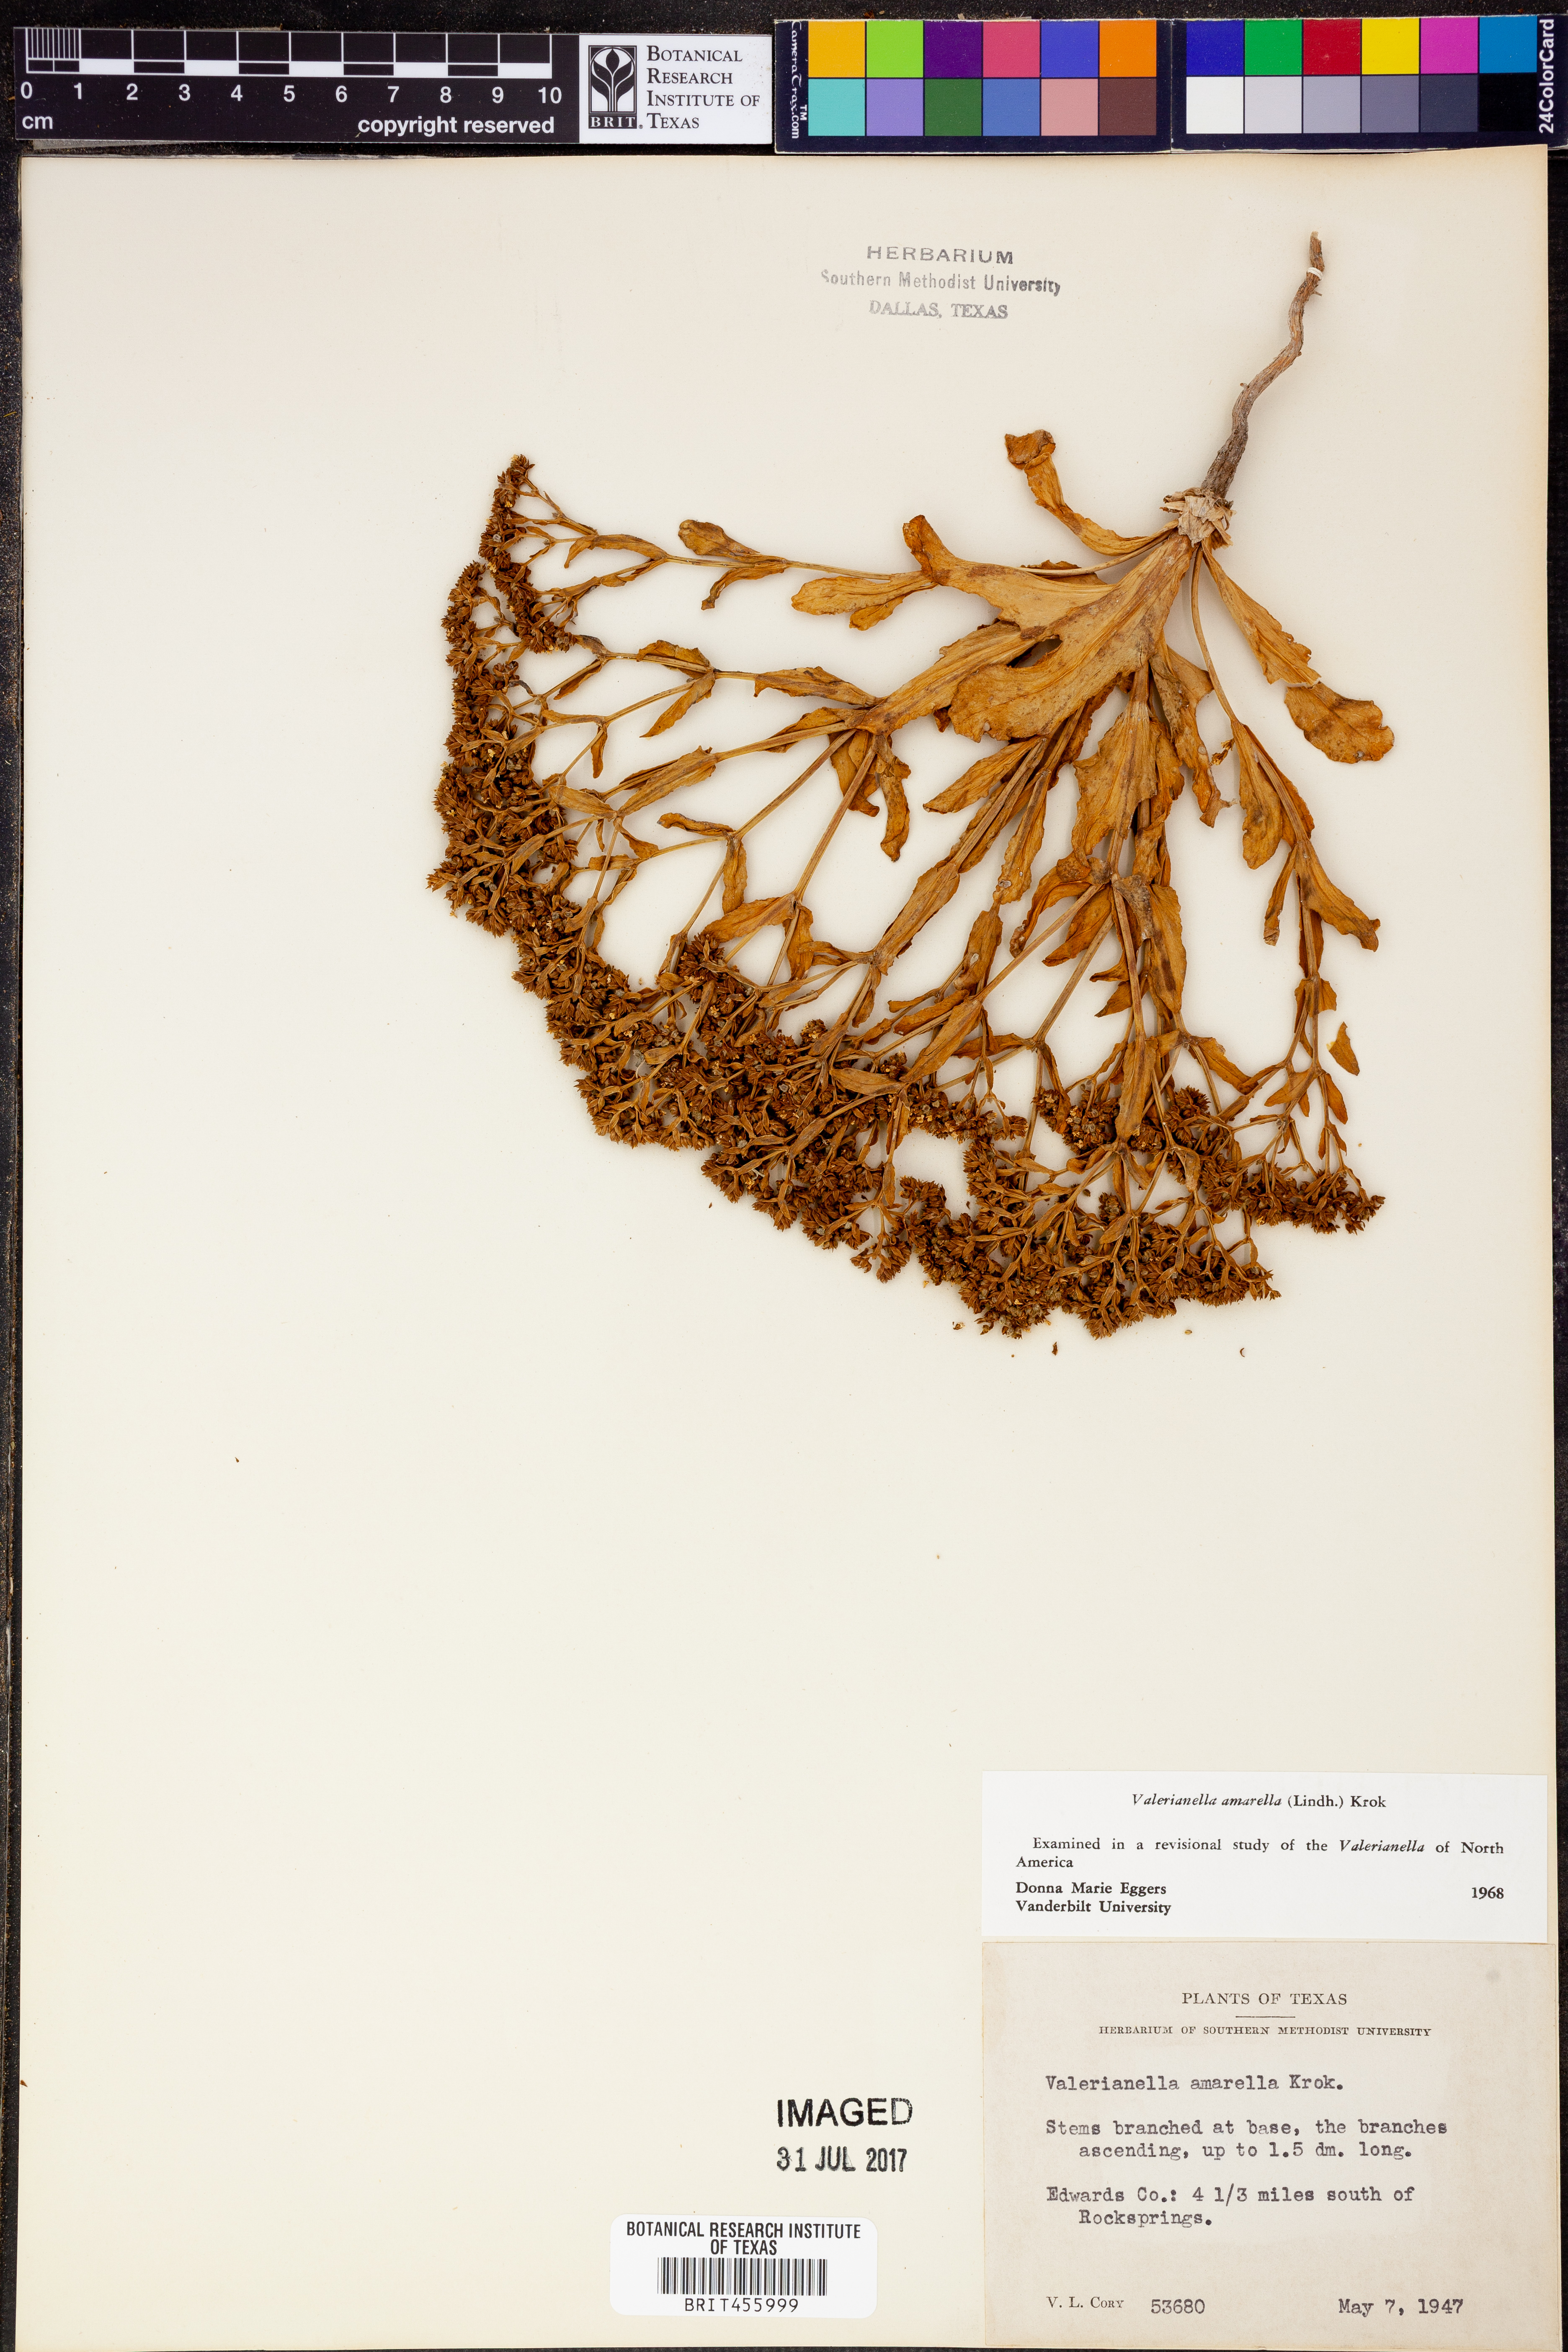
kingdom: Plantae
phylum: Tracheophyta
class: Magnoliopsida
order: Dipsacales
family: Caprifoliaceae
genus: Valerianella
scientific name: Valerianella amarella
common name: Hariy cornsalad
